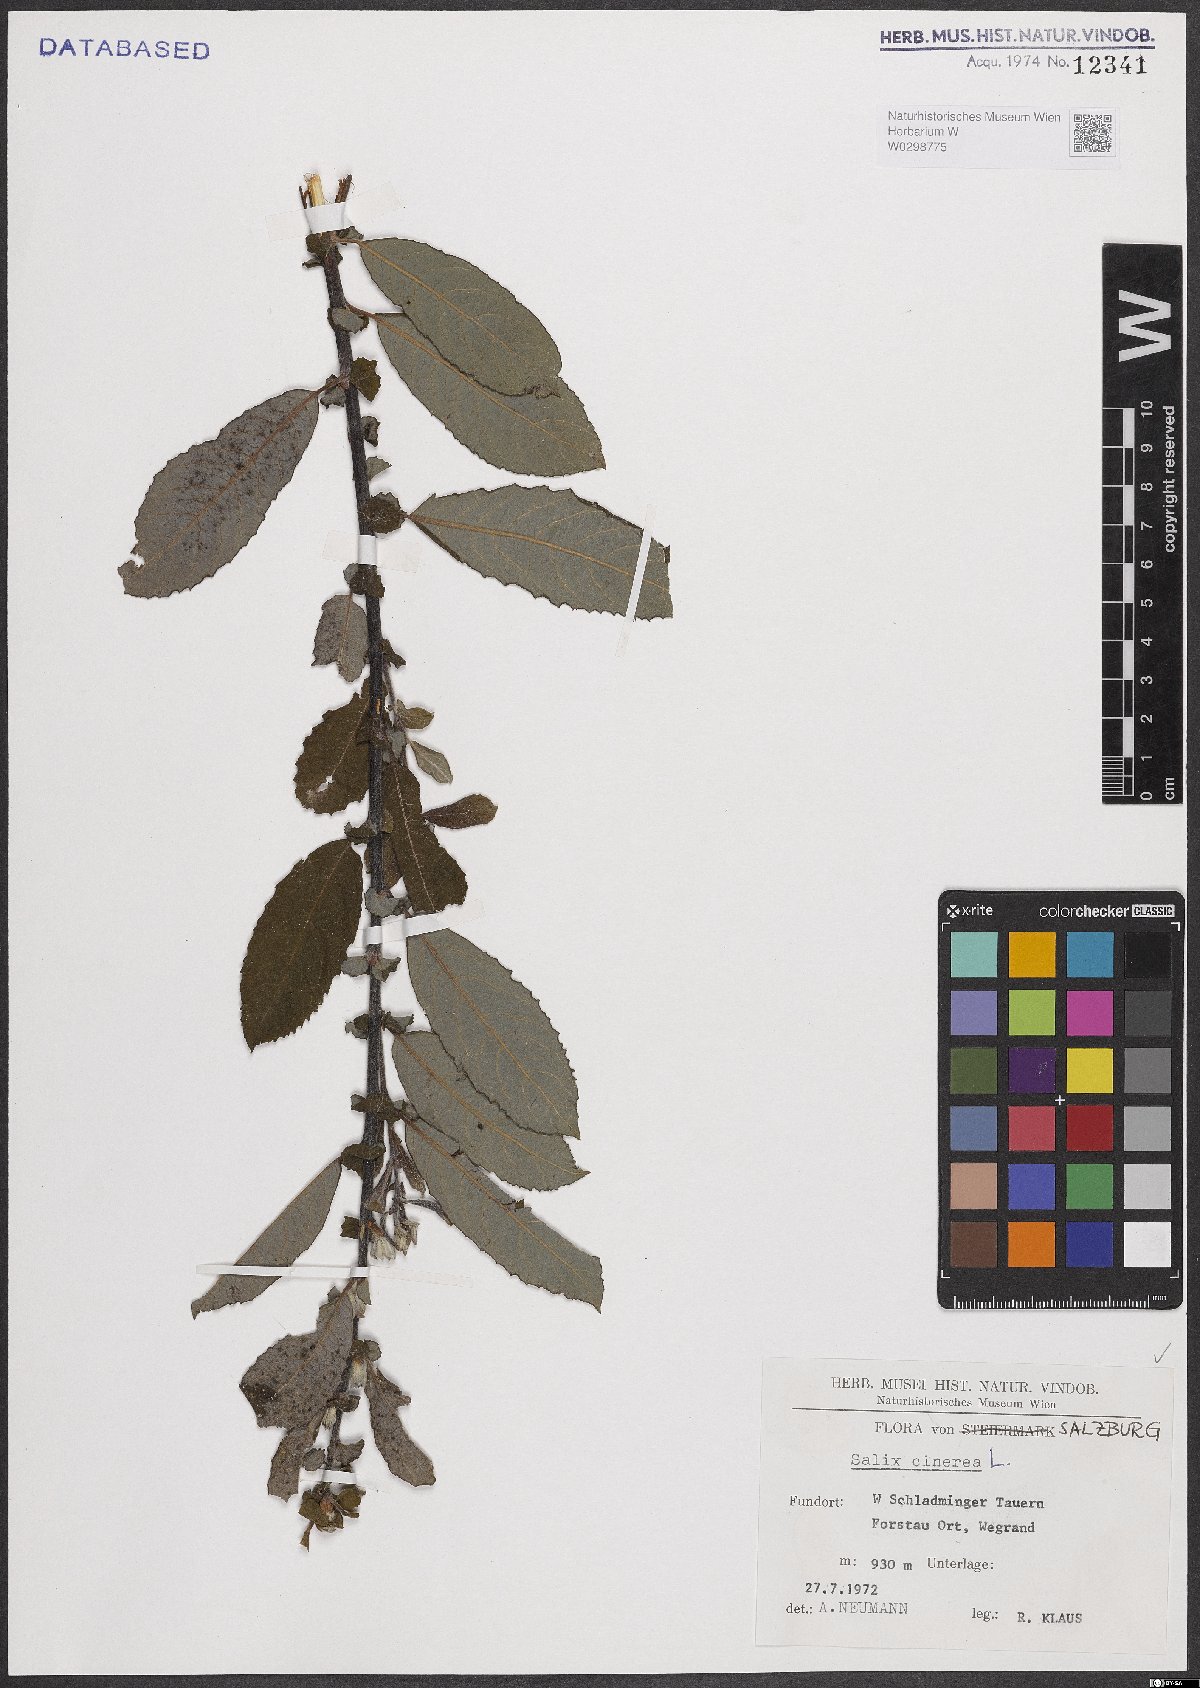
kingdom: Plantae
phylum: Tracheophyta
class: Magnoliopsida
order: Malpighiales
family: Salicaceae
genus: Salix
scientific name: Salix cinerea
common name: Common sallow
